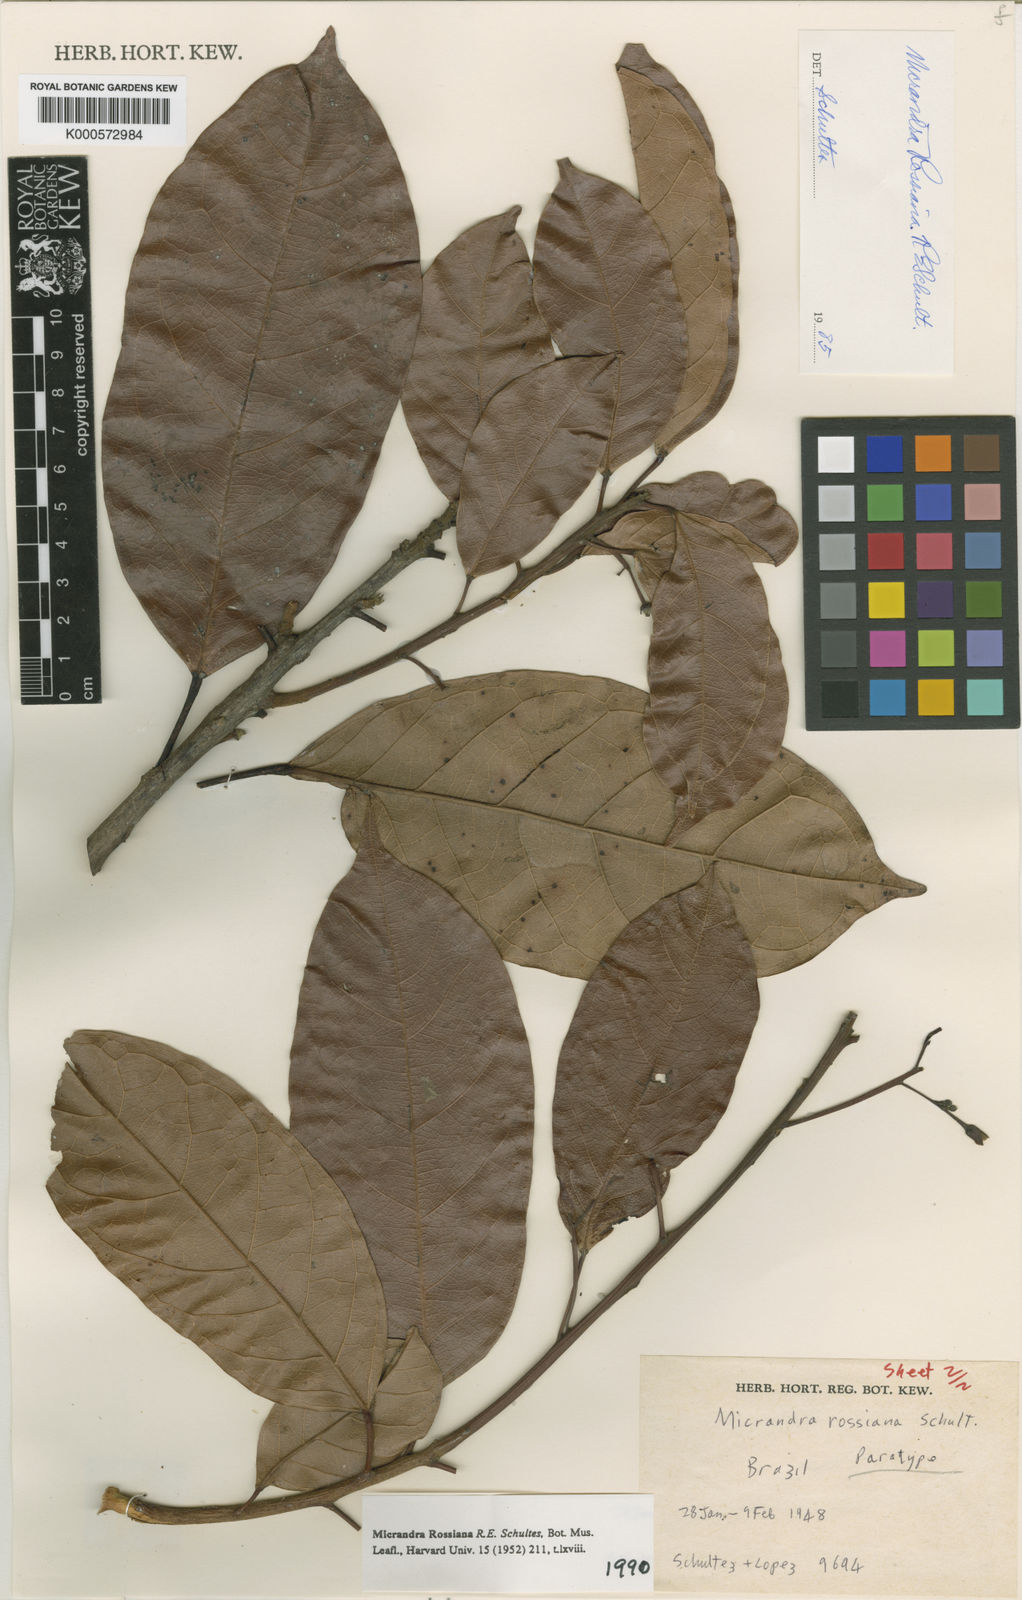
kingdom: Plantae
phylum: Tracheophyta
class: Magnoliopsida
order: Malpighiales
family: Euphorbiaceae
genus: Micrandra
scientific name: Micrandra rossiana
